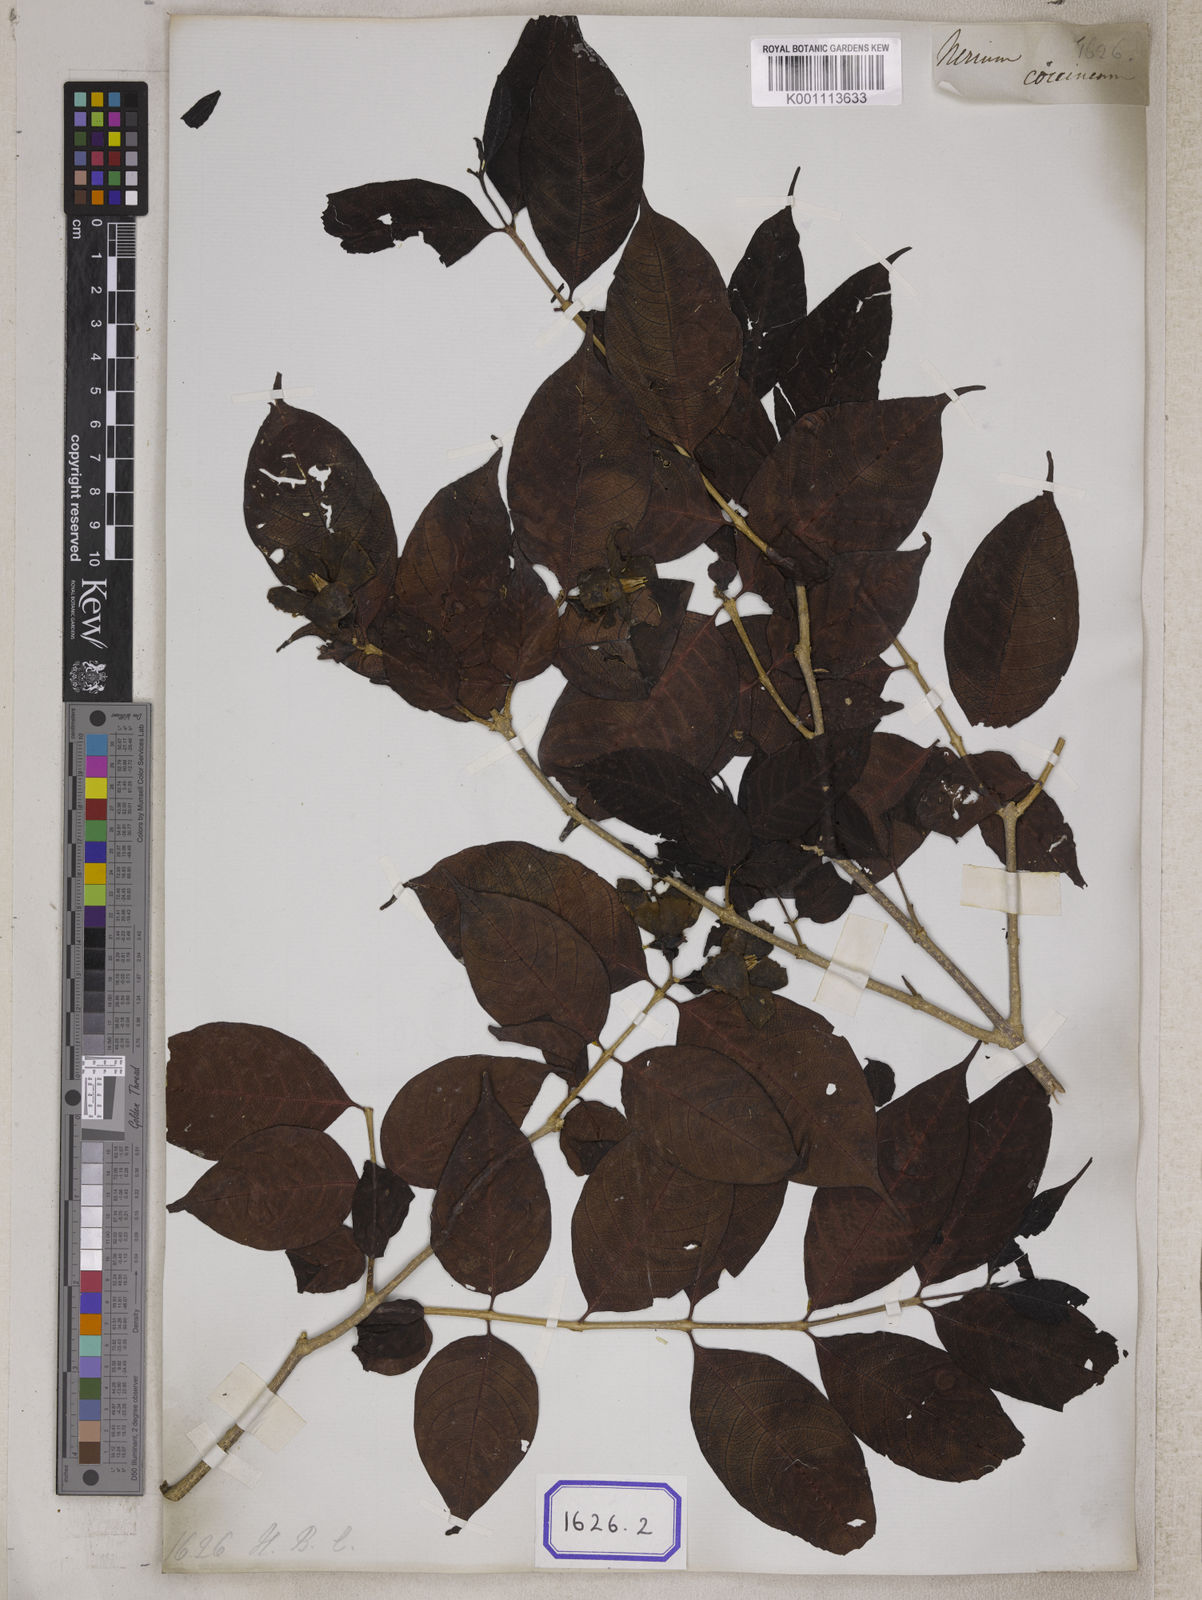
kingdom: Plantae
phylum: Tracheophyta
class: Magnoliopsida
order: Gentianales
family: Apocynaceae
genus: Wrightia
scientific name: Wrightia coccinea
